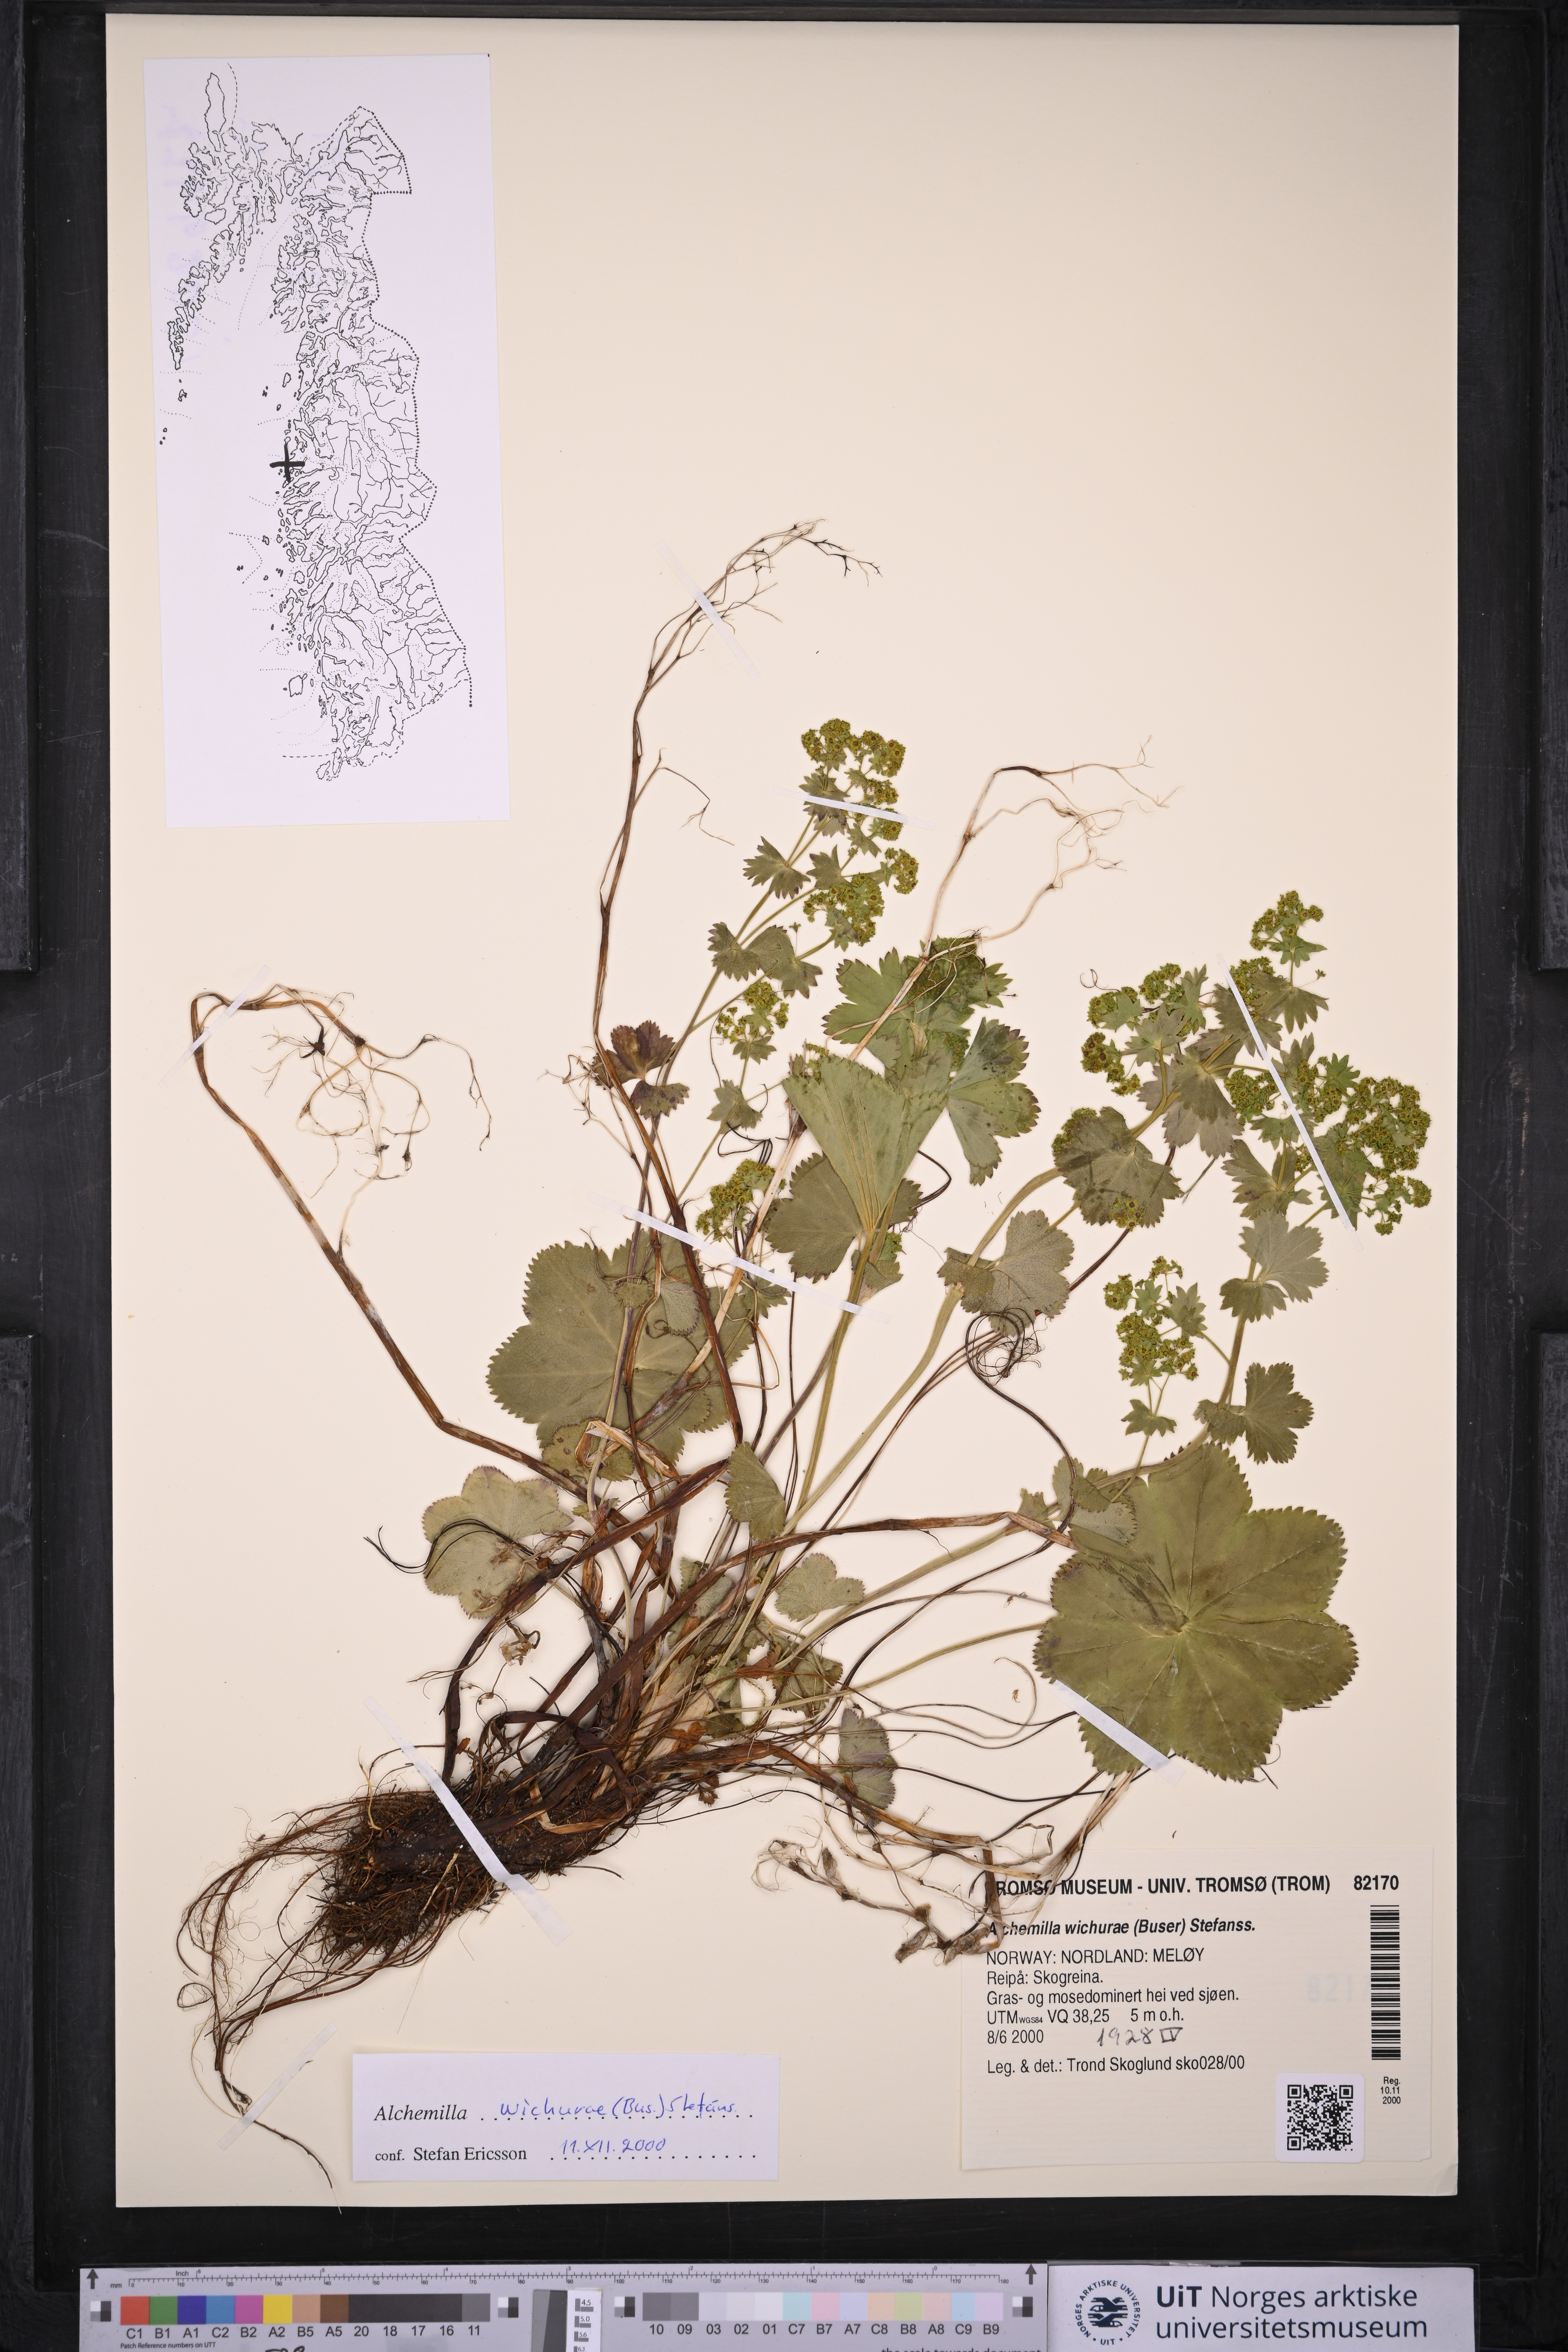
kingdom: Plantae
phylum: Tracheophyta
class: Magnoliopsida
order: Rosales
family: Rosaceae
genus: Alchemilla
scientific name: Alchemilla wichurae
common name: Rock lady's mantle
